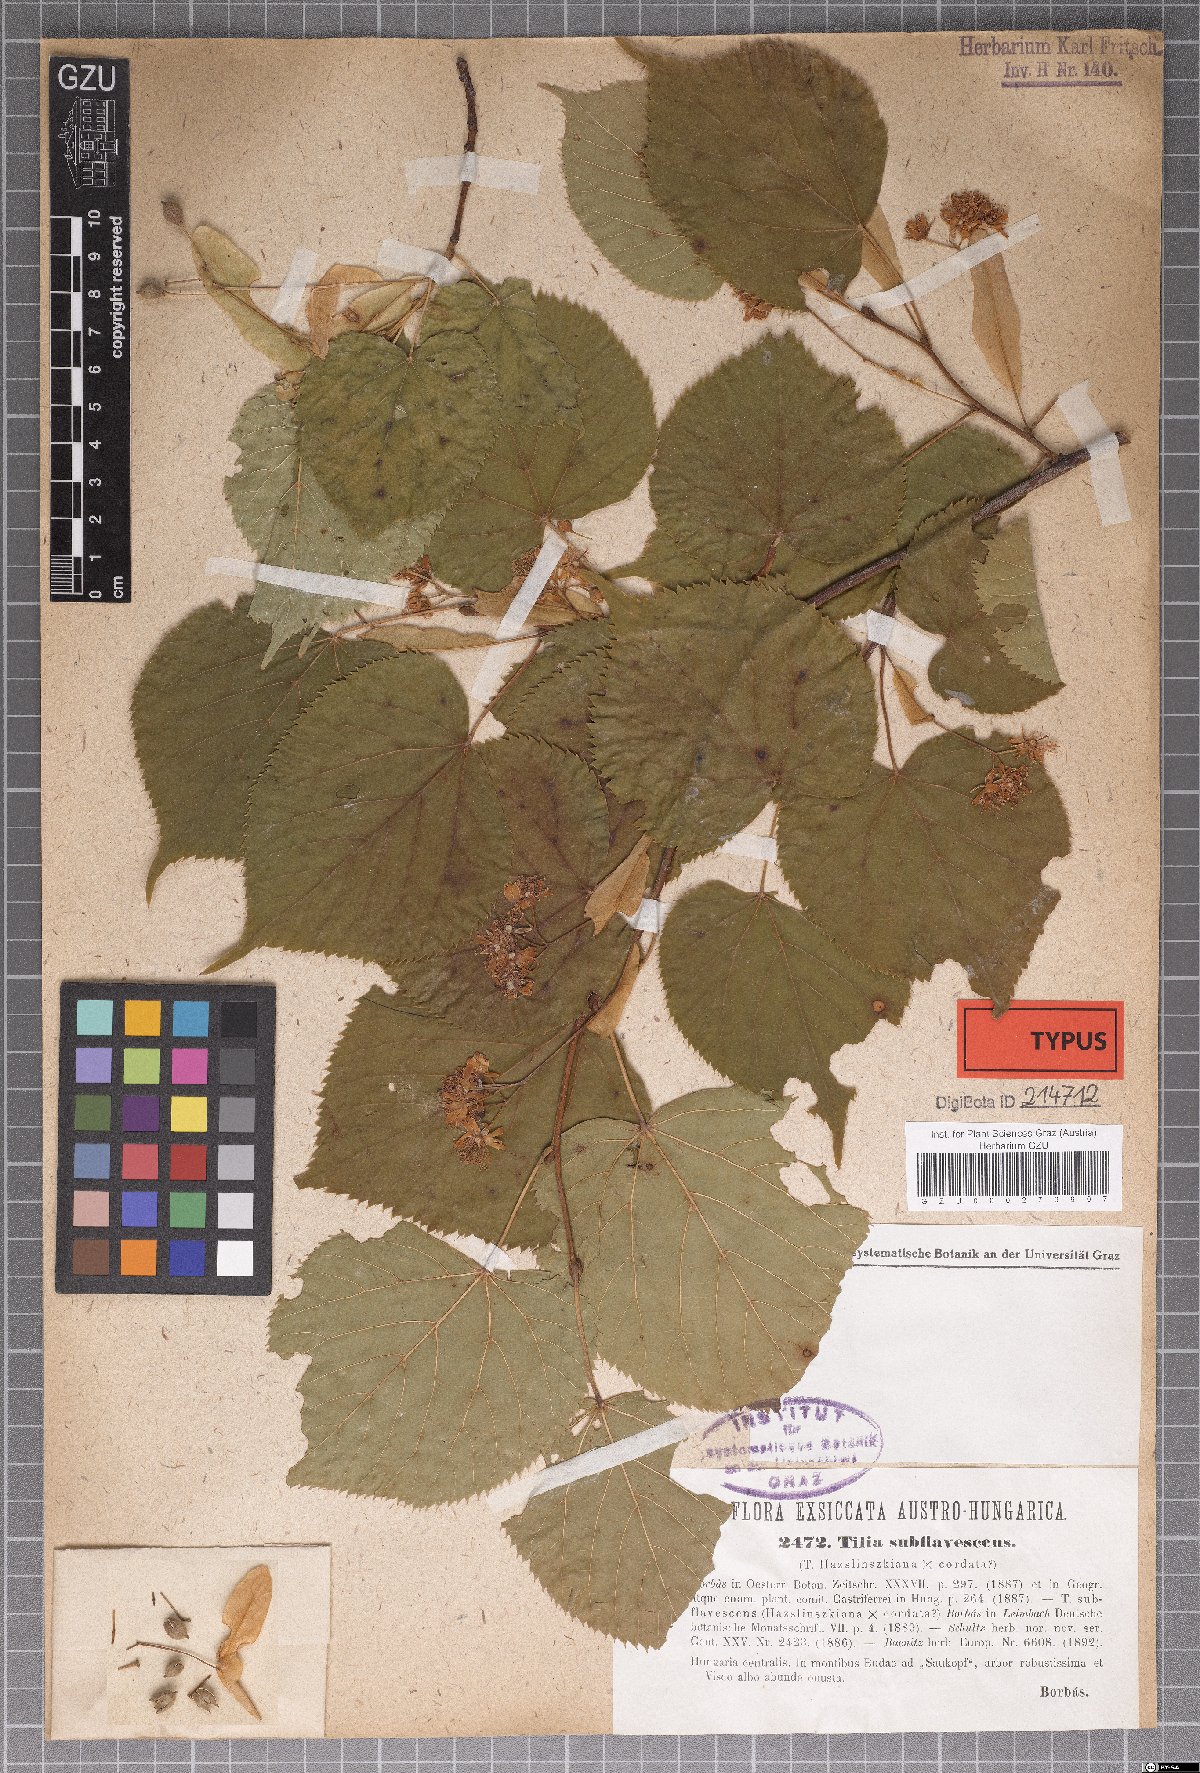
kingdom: Plantae
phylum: Tracheophyta
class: Magnoliopsida
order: Malvales
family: Malvaceae
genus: Tilia
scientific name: Tilia platyphyllos
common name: Large-leaved lime
